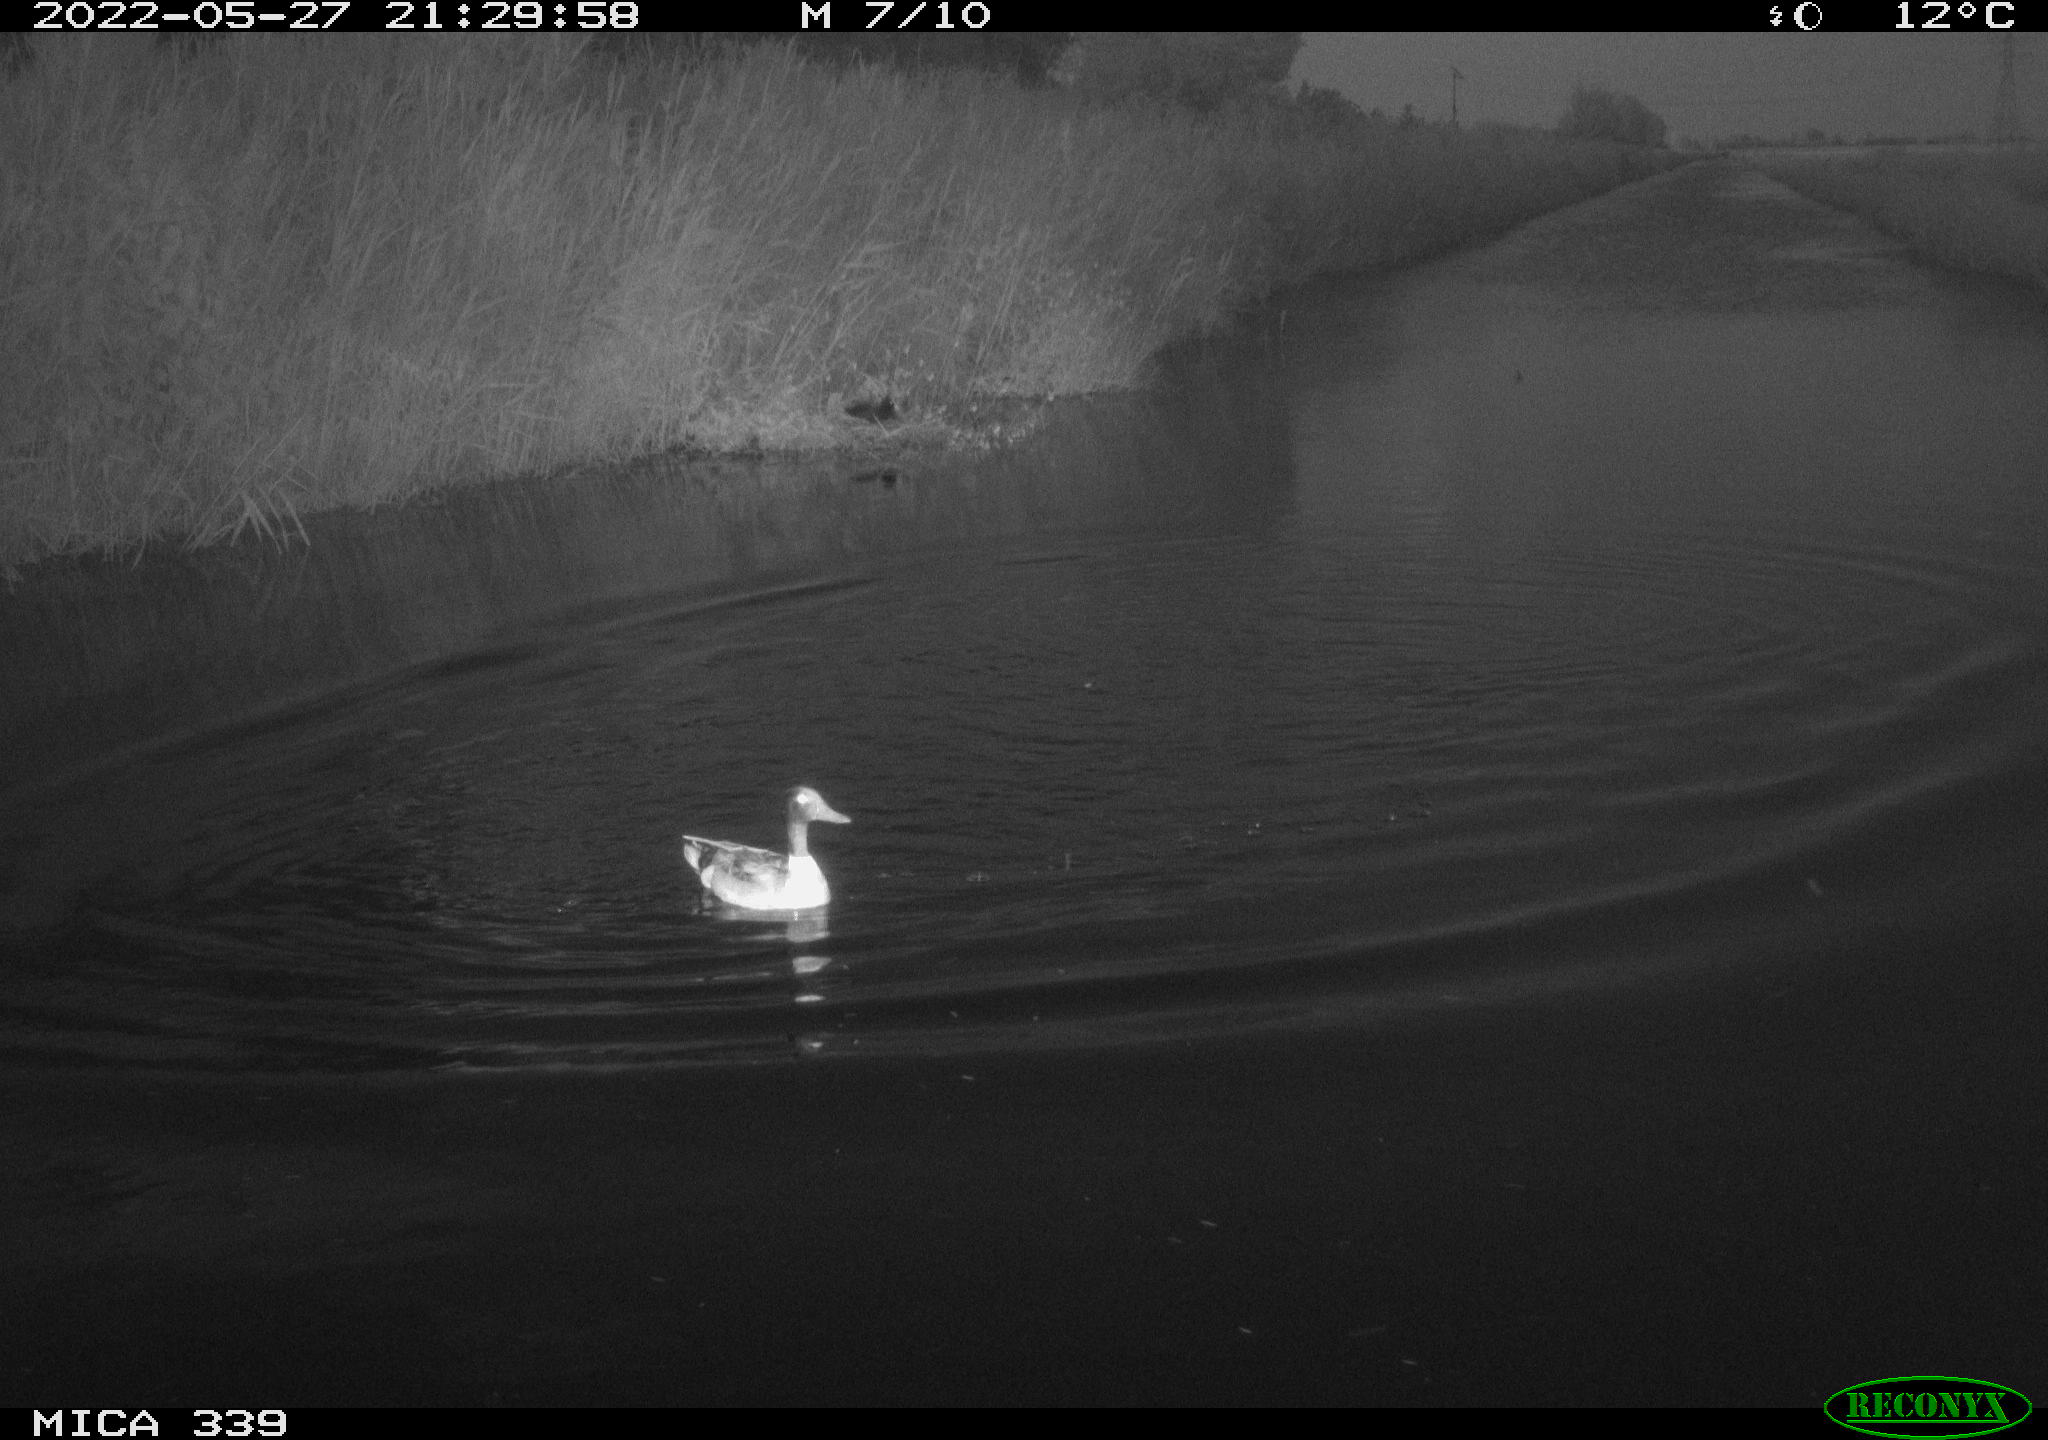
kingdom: Animalia
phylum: Chordata
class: Aves
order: Anseriformes
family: Anatidae
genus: Anas
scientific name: Anas platyrhynchos
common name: Mallard
